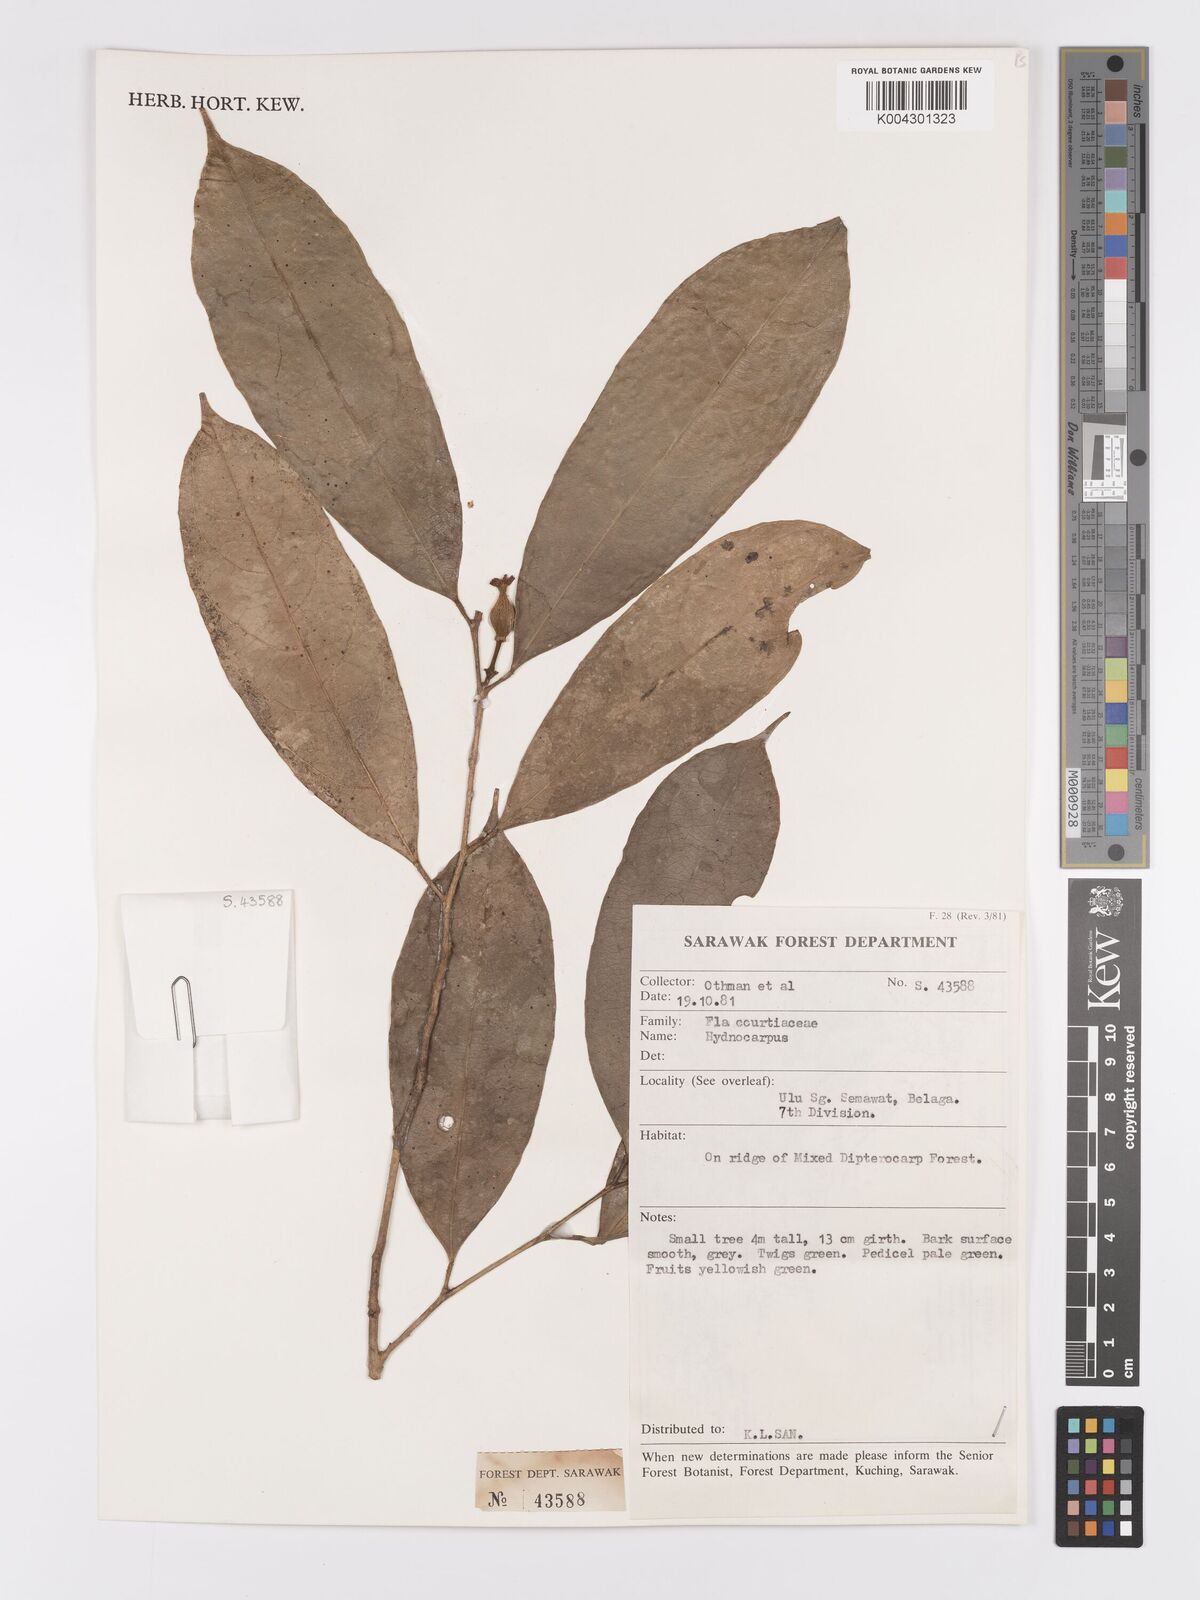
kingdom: Plantae
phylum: Tracheophyta
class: Magnoliopsida
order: Malpighiales
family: Achariaceae
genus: Hydnocarpus
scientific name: Hydnocarpus
